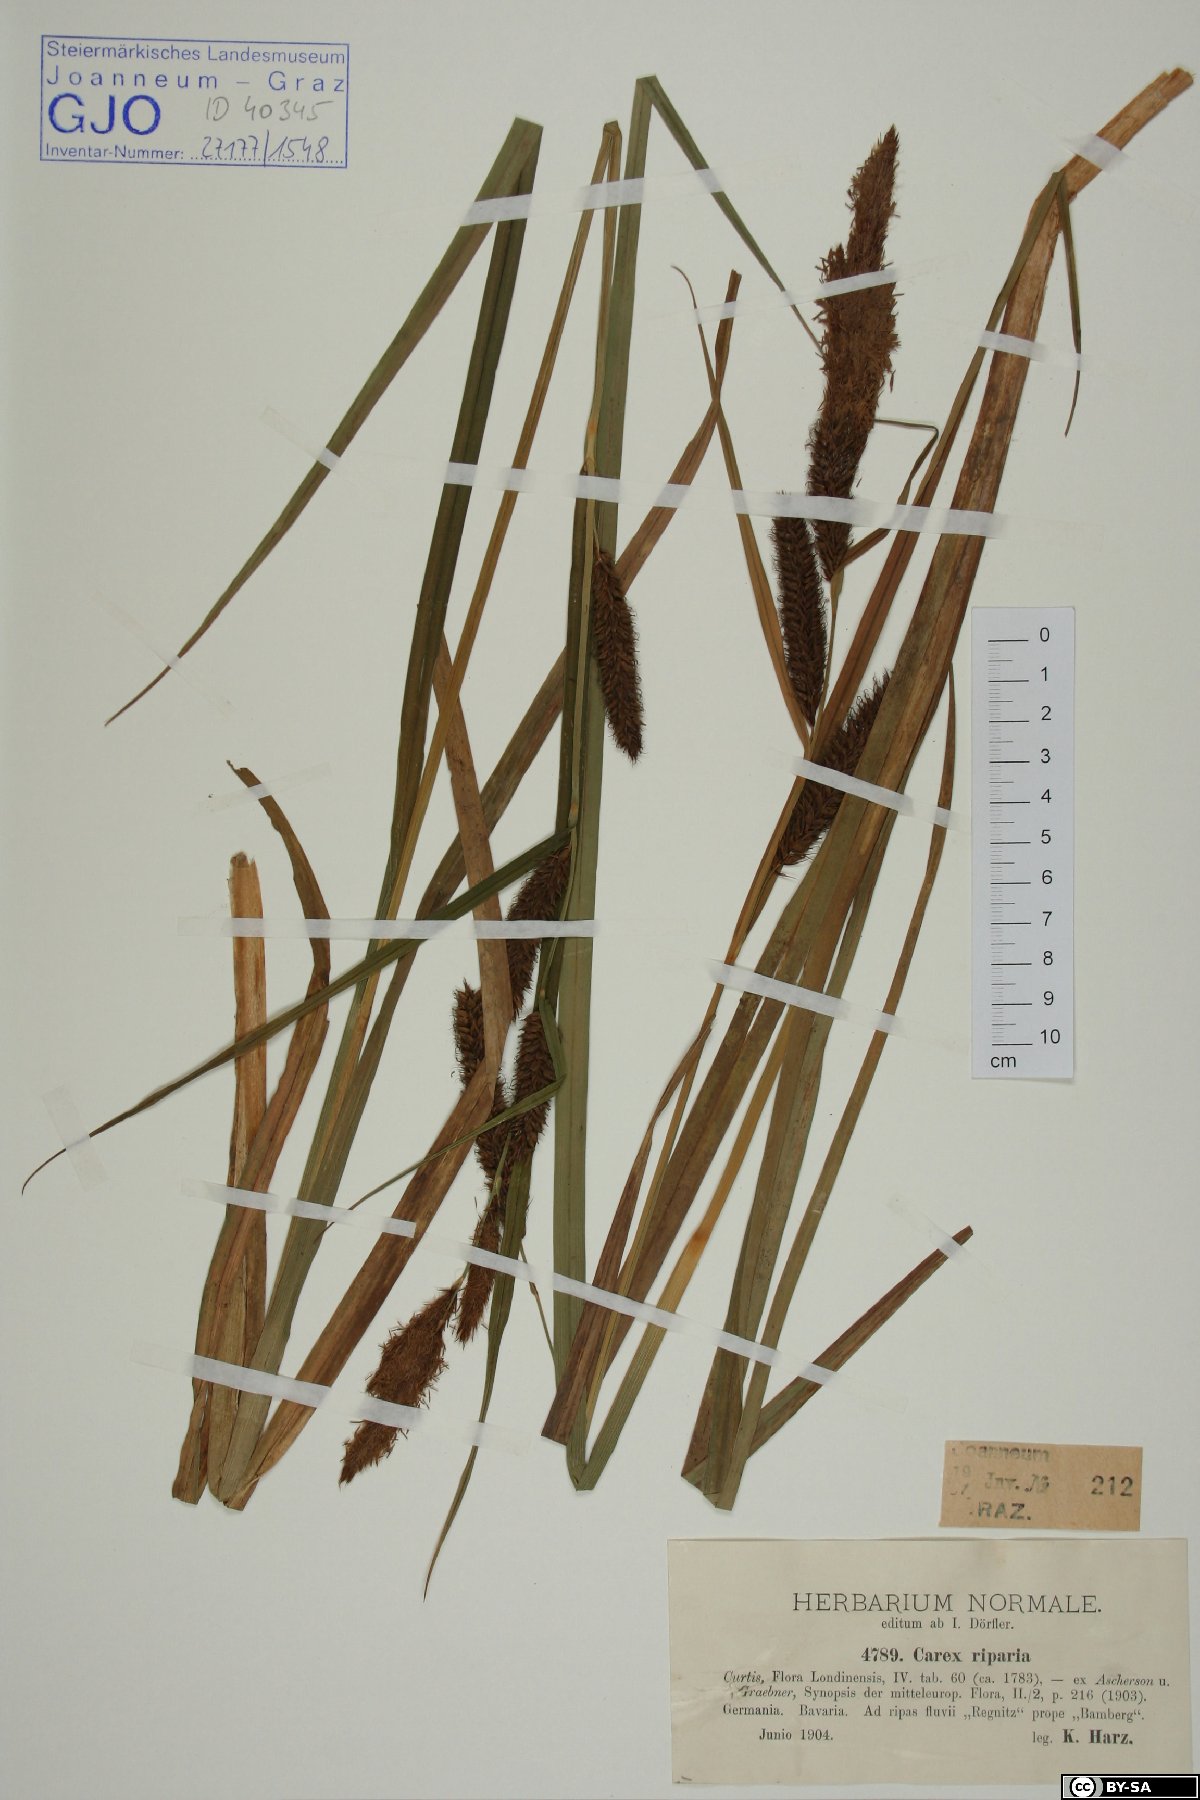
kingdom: Plantae
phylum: Tracheophyta
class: Liliopsida
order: Poales
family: Cyperaceae
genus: Carex
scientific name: Carex riparia
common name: Greater pond-sedge
